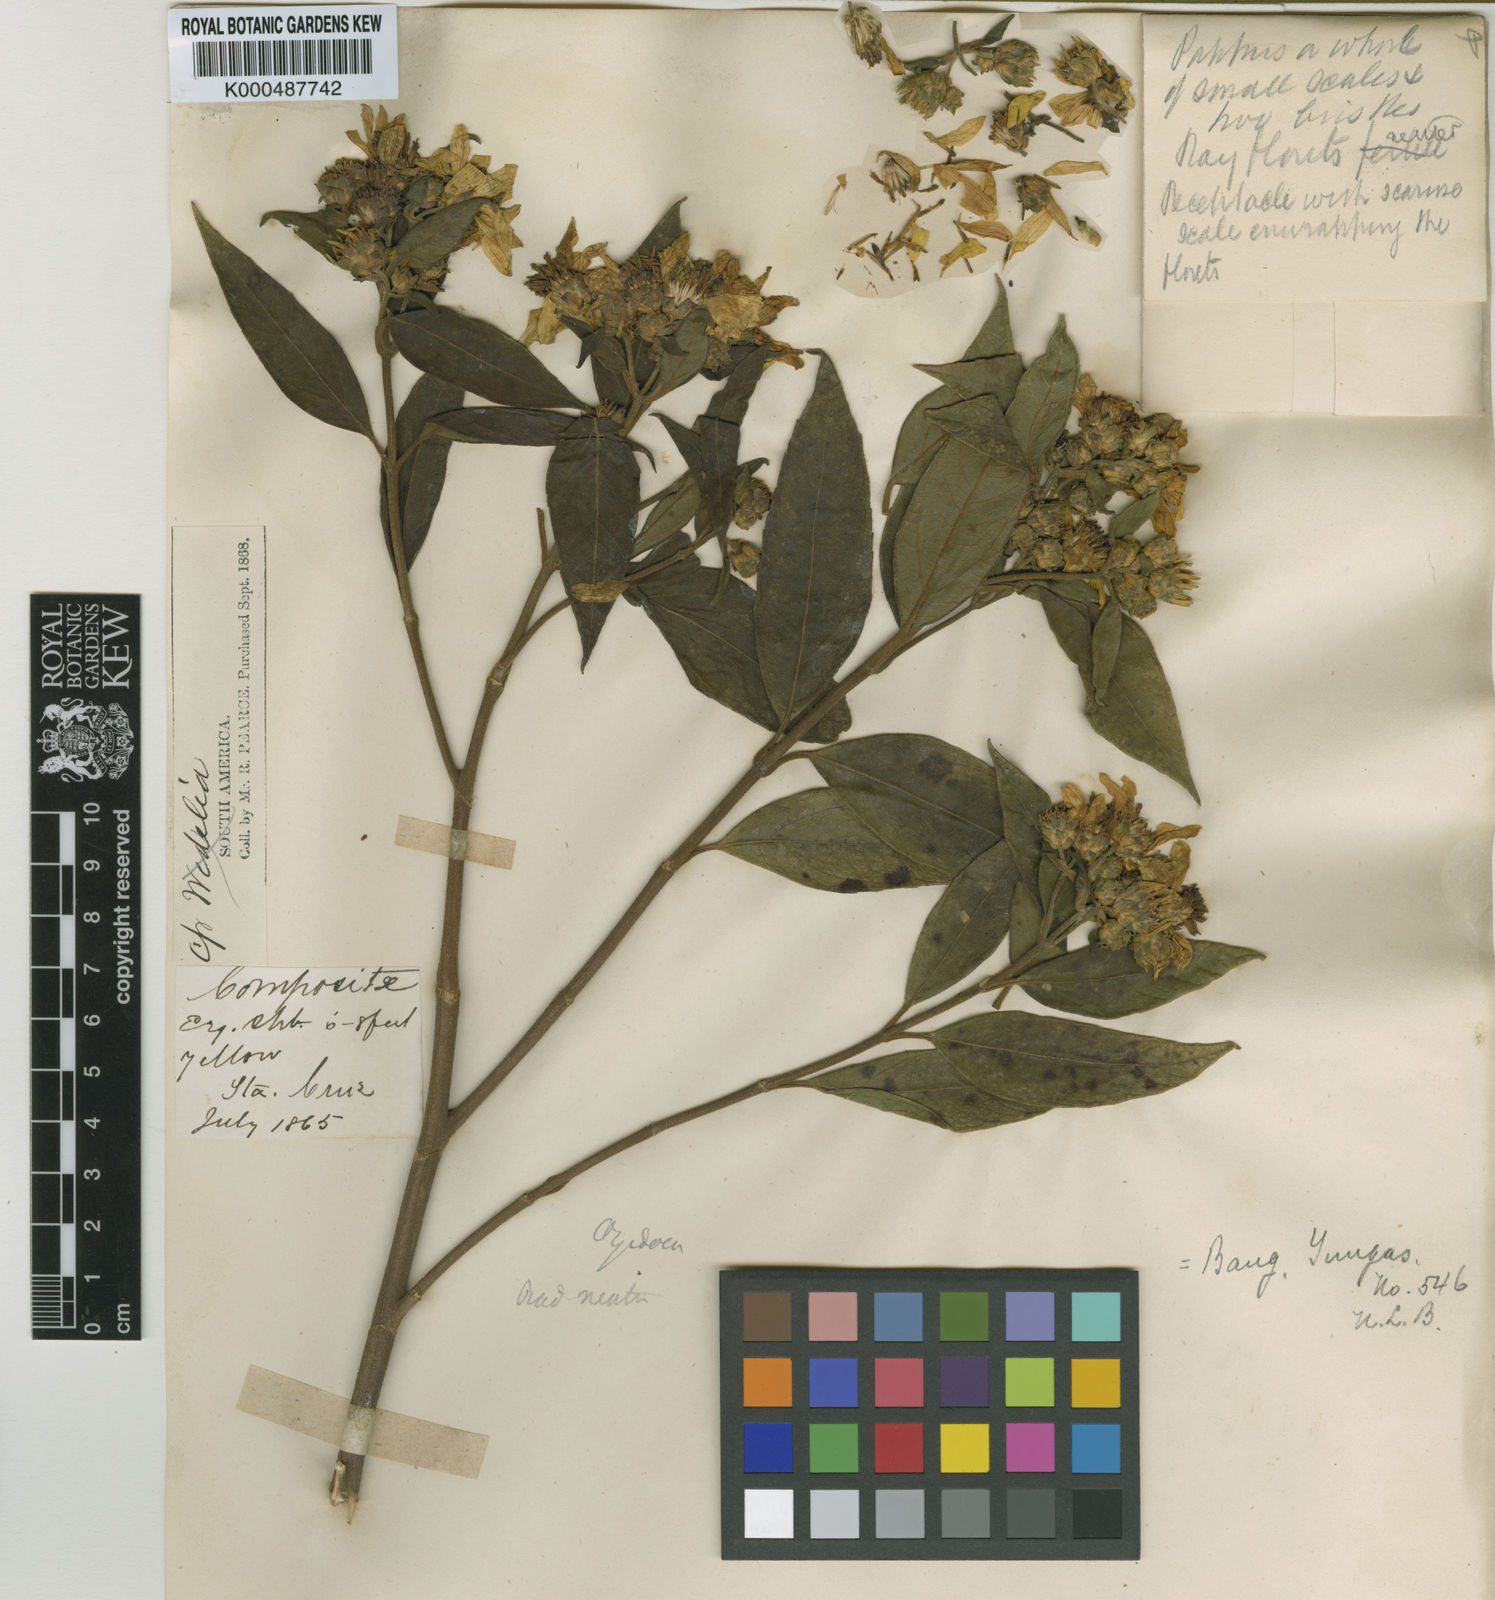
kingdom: Plantae
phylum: Tracheophyta
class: Magnoliopsida
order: Asterales
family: Asteraceae
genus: Oyedaea
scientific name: Oyedaea boliviana
